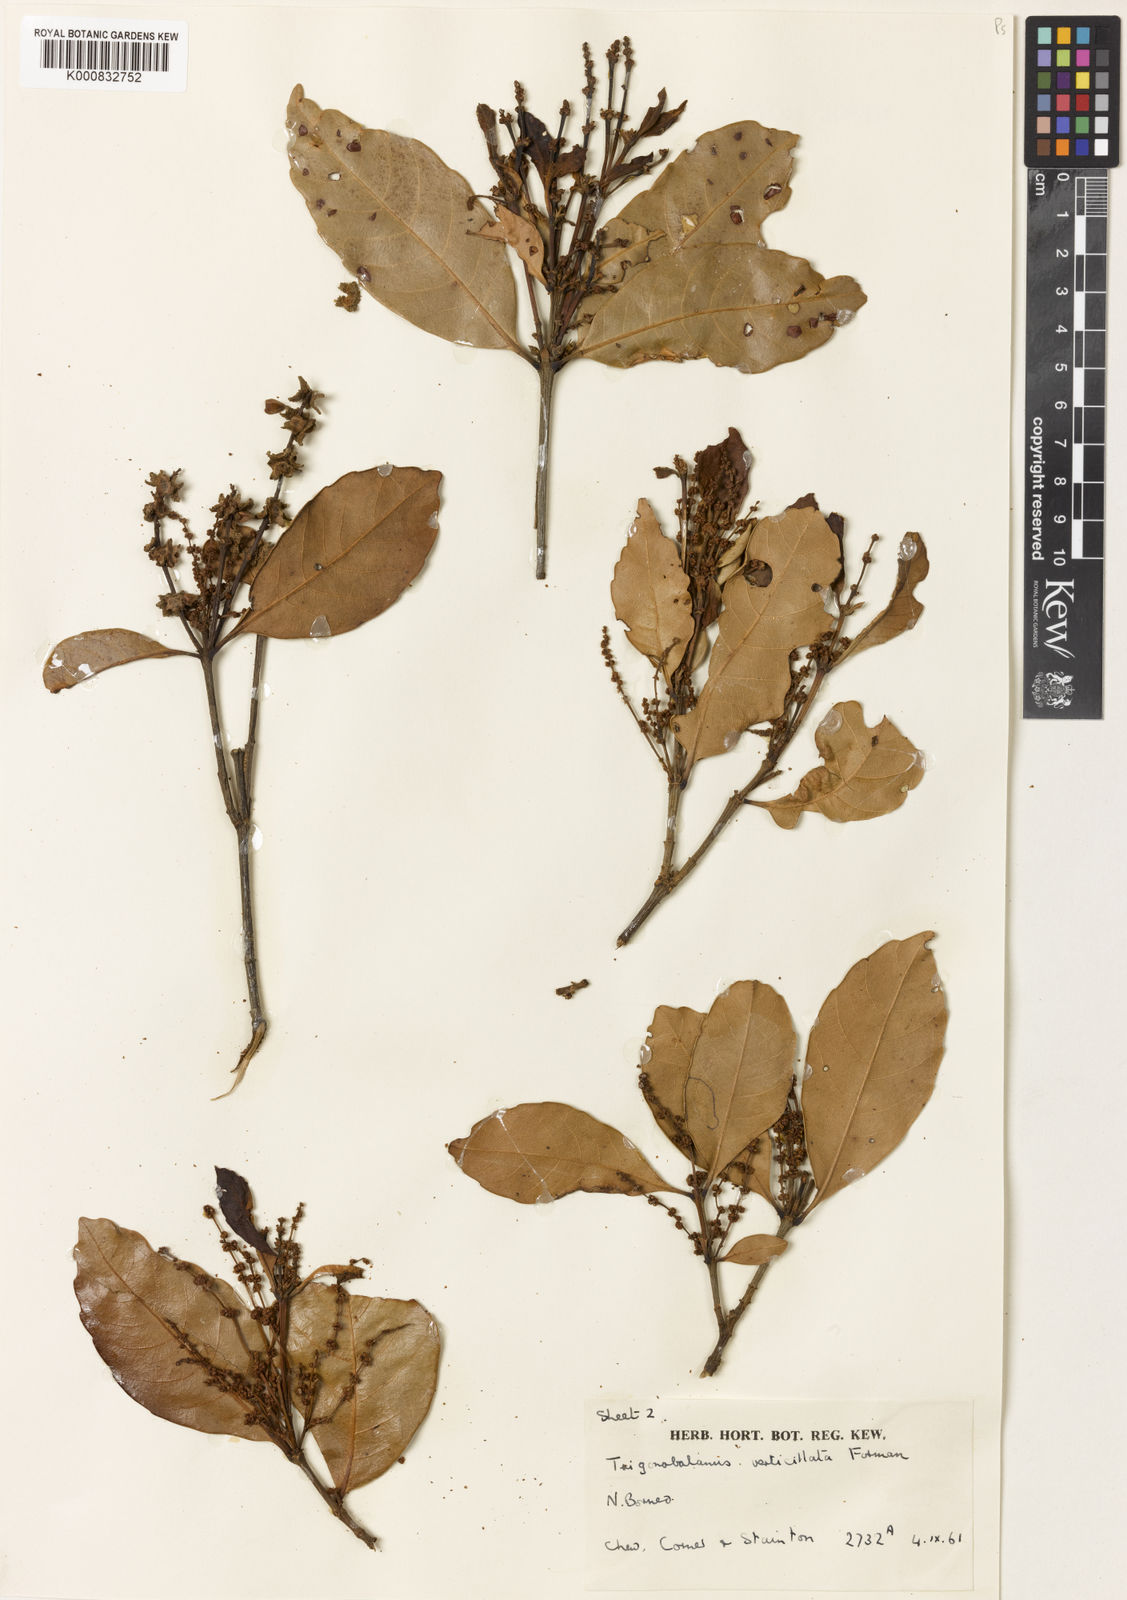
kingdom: Plantae
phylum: Tracheophyta
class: Magnoliopsida
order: Fagales
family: Fagaceae
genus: Trigonobalanus
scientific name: Trigonobalanus verticillata
